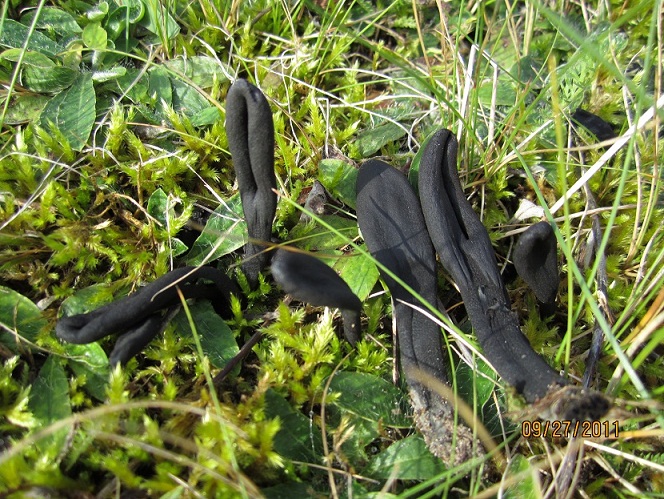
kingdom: Fungi
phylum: Ascomycota
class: Geoglossomycetes
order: Geoglossales
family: Geoglossaceae
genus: Geoglossum
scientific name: Geoglossum cookeianum
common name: bred jordtunge
